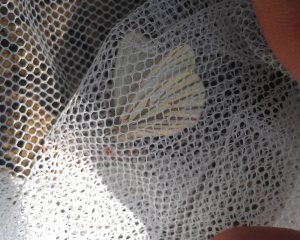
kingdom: Animalia
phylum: Arthropoda
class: Insecta
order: Lepidoptera
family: Pieridae
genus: Pieris
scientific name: Pieris oleracea
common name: Mustard White
